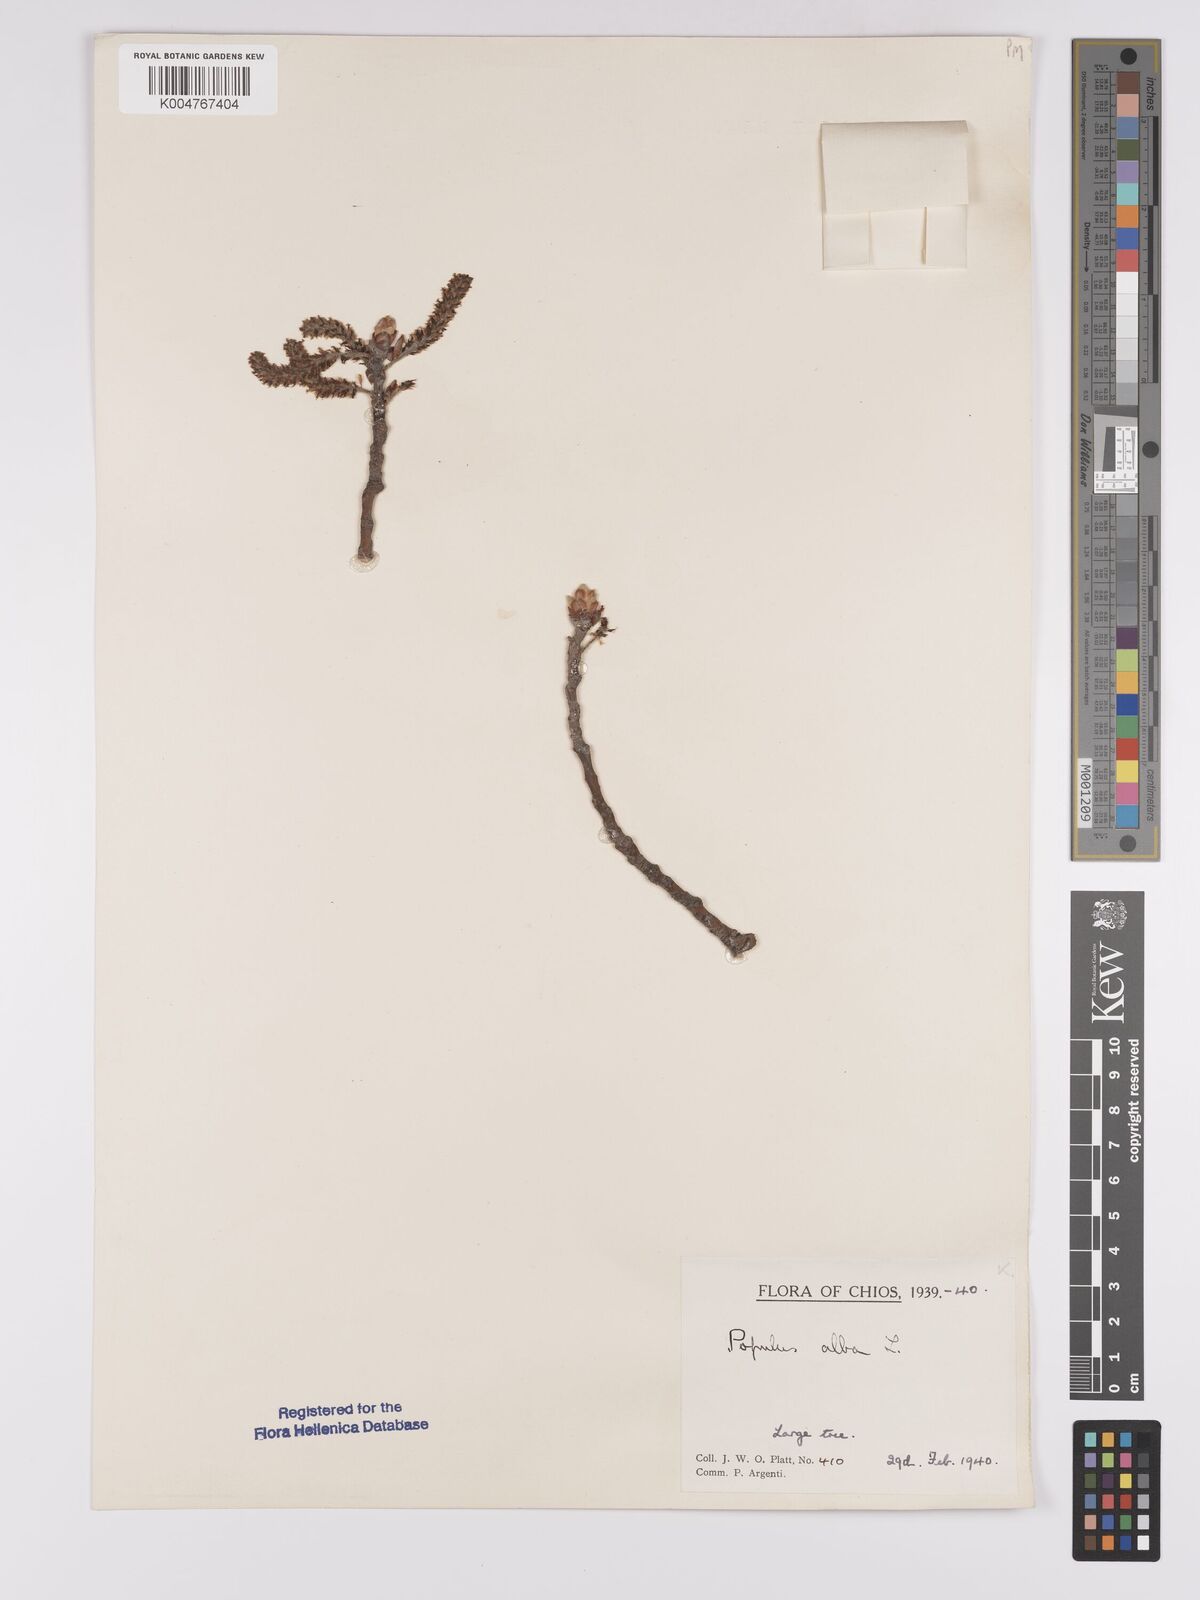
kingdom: Plantae
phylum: Tracheophyta
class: Magnoliopsida
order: Malpighiales
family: Salicaceae
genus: Populus
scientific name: Populus alba
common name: White poplar
